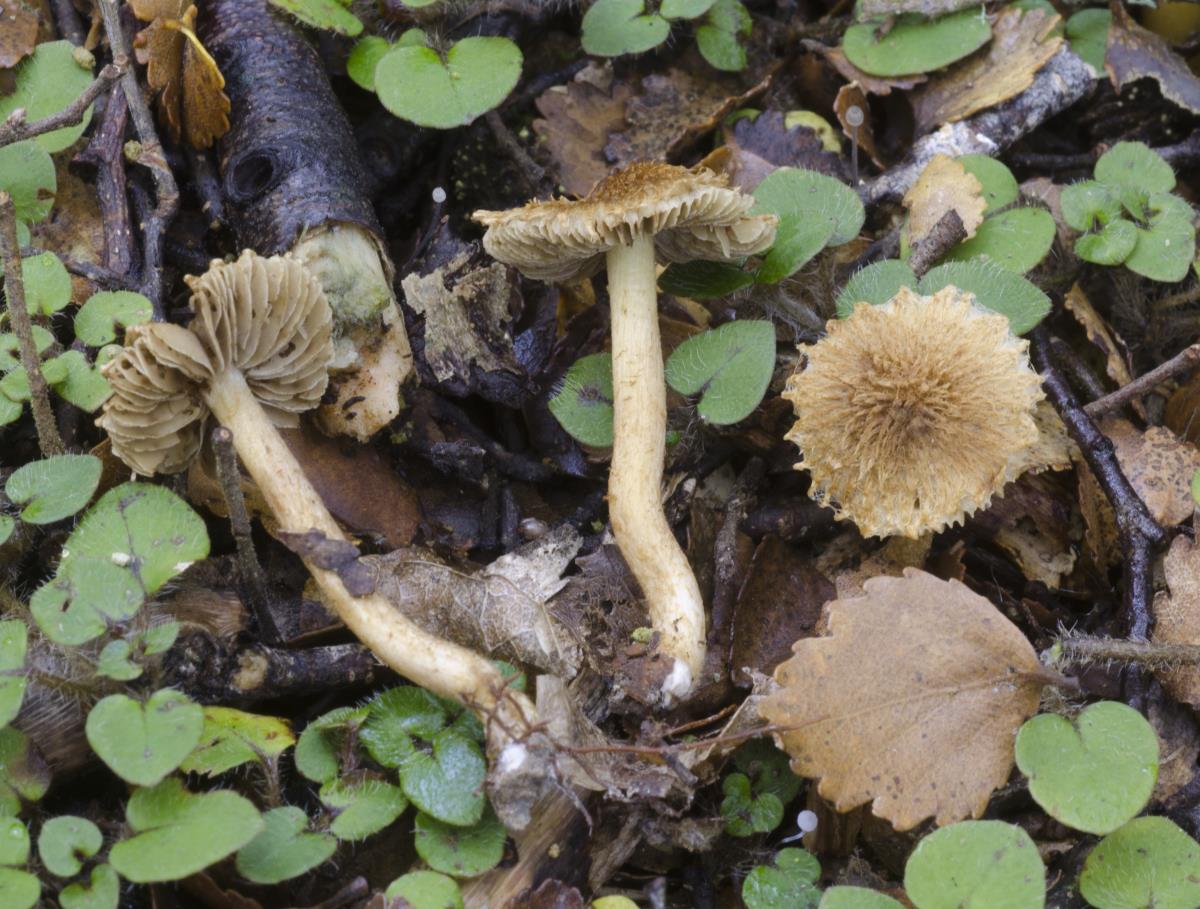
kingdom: Fungi
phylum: Basidiomycota
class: Agaricomycetes
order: Agaricales
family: Inocybaceae
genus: Inocybe
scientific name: Inocybe brunneolutea
